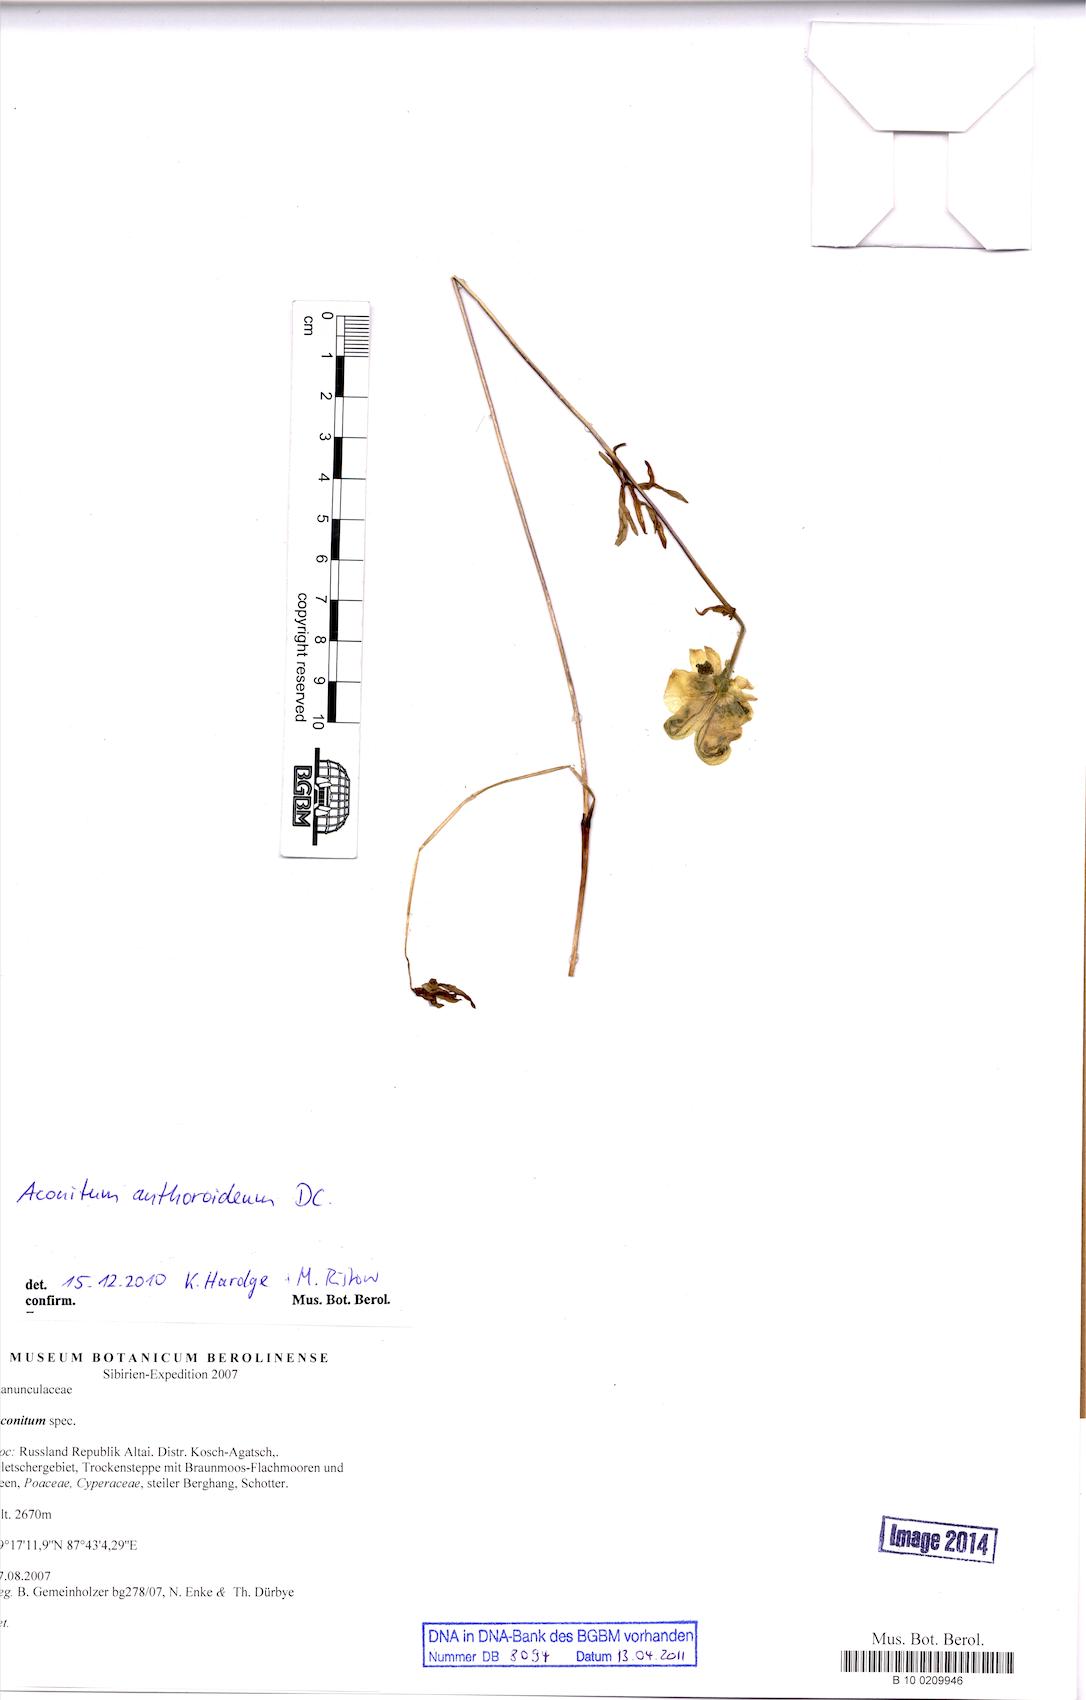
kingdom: Plantae
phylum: Tracheophyta
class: Magnoliopsida
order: Ranunculales
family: Ranunculaceae
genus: Aconitum
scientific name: Aconitum anthoroideum
